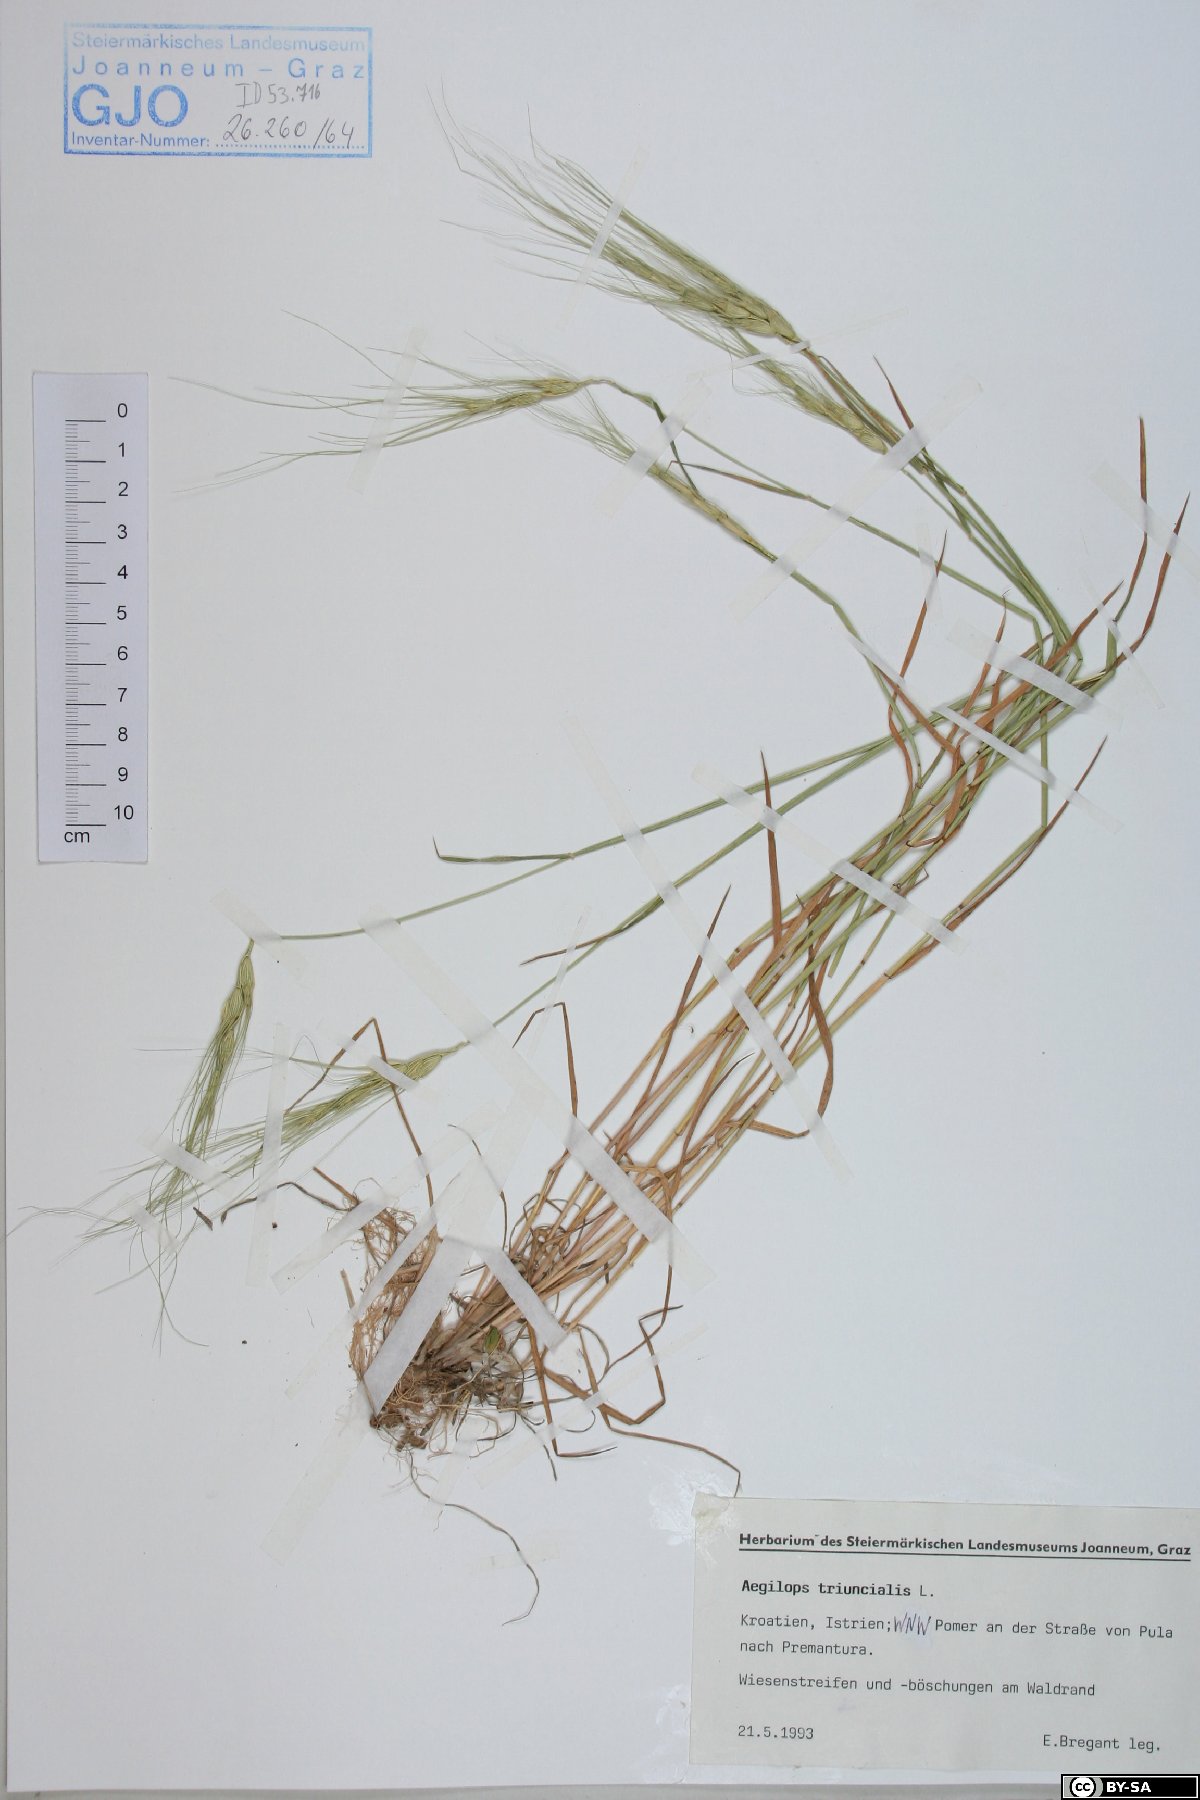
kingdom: Plantae
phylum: Tracheophyta
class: Liliopsida
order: Poales
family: Poaceae
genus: Aegilops
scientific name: Aegilops triuncialis
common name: Barb goat grass
